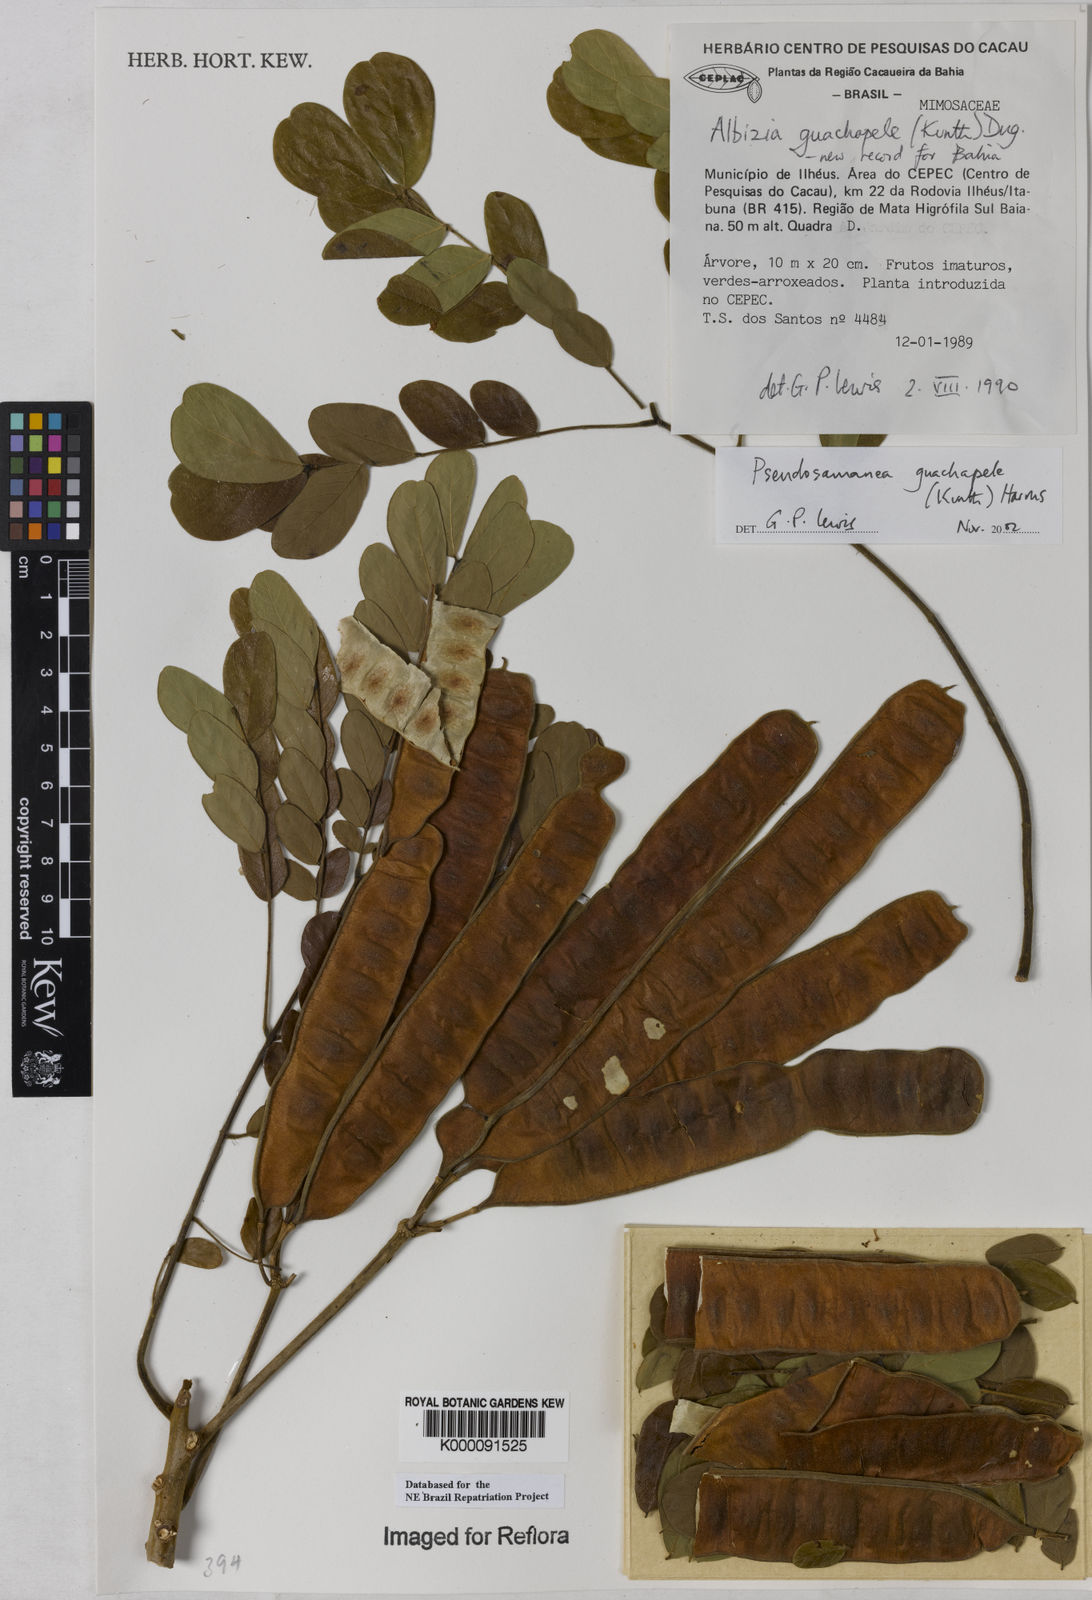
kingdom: Plantae
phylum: Tracheophyta
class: Magnoliopsida
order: Fabales
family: Fabaceae
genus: Pseudosamanea
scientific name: Pseudosamanea guachapele
